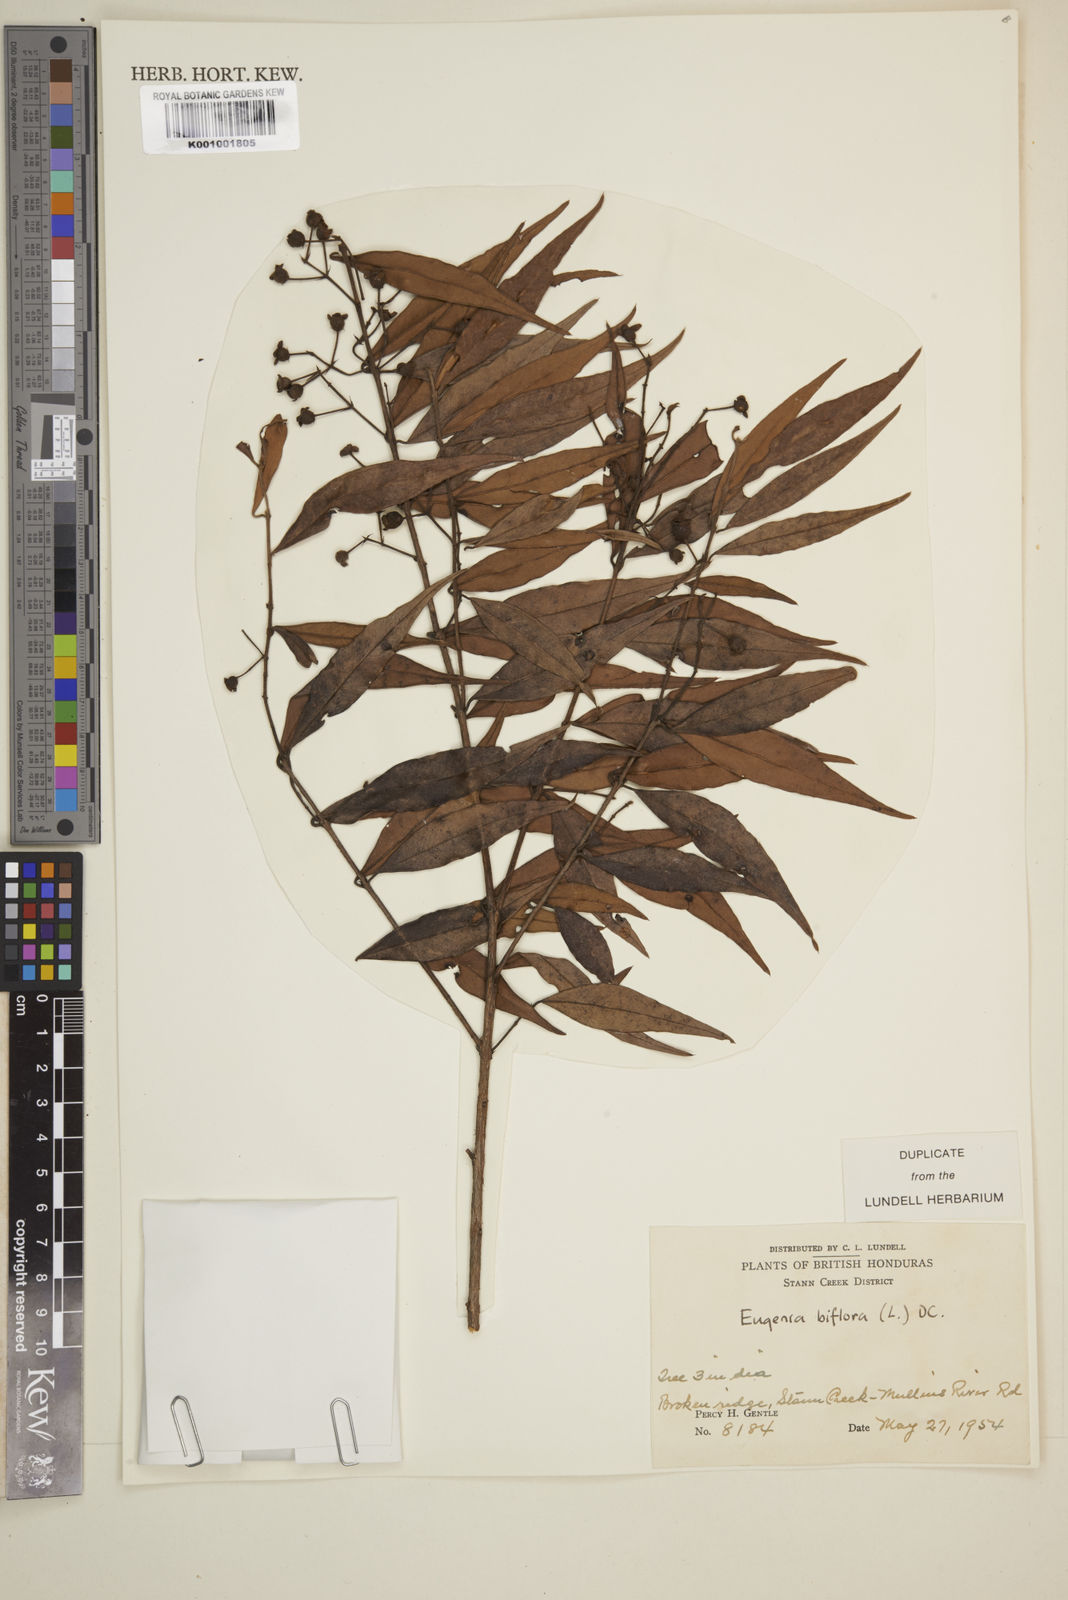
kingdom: Plantae
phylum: Tracheophyta
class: Magnoliopsida
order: Myrtales
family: Myrtaceae
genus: Eugenia
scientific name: Eugenia biflora
